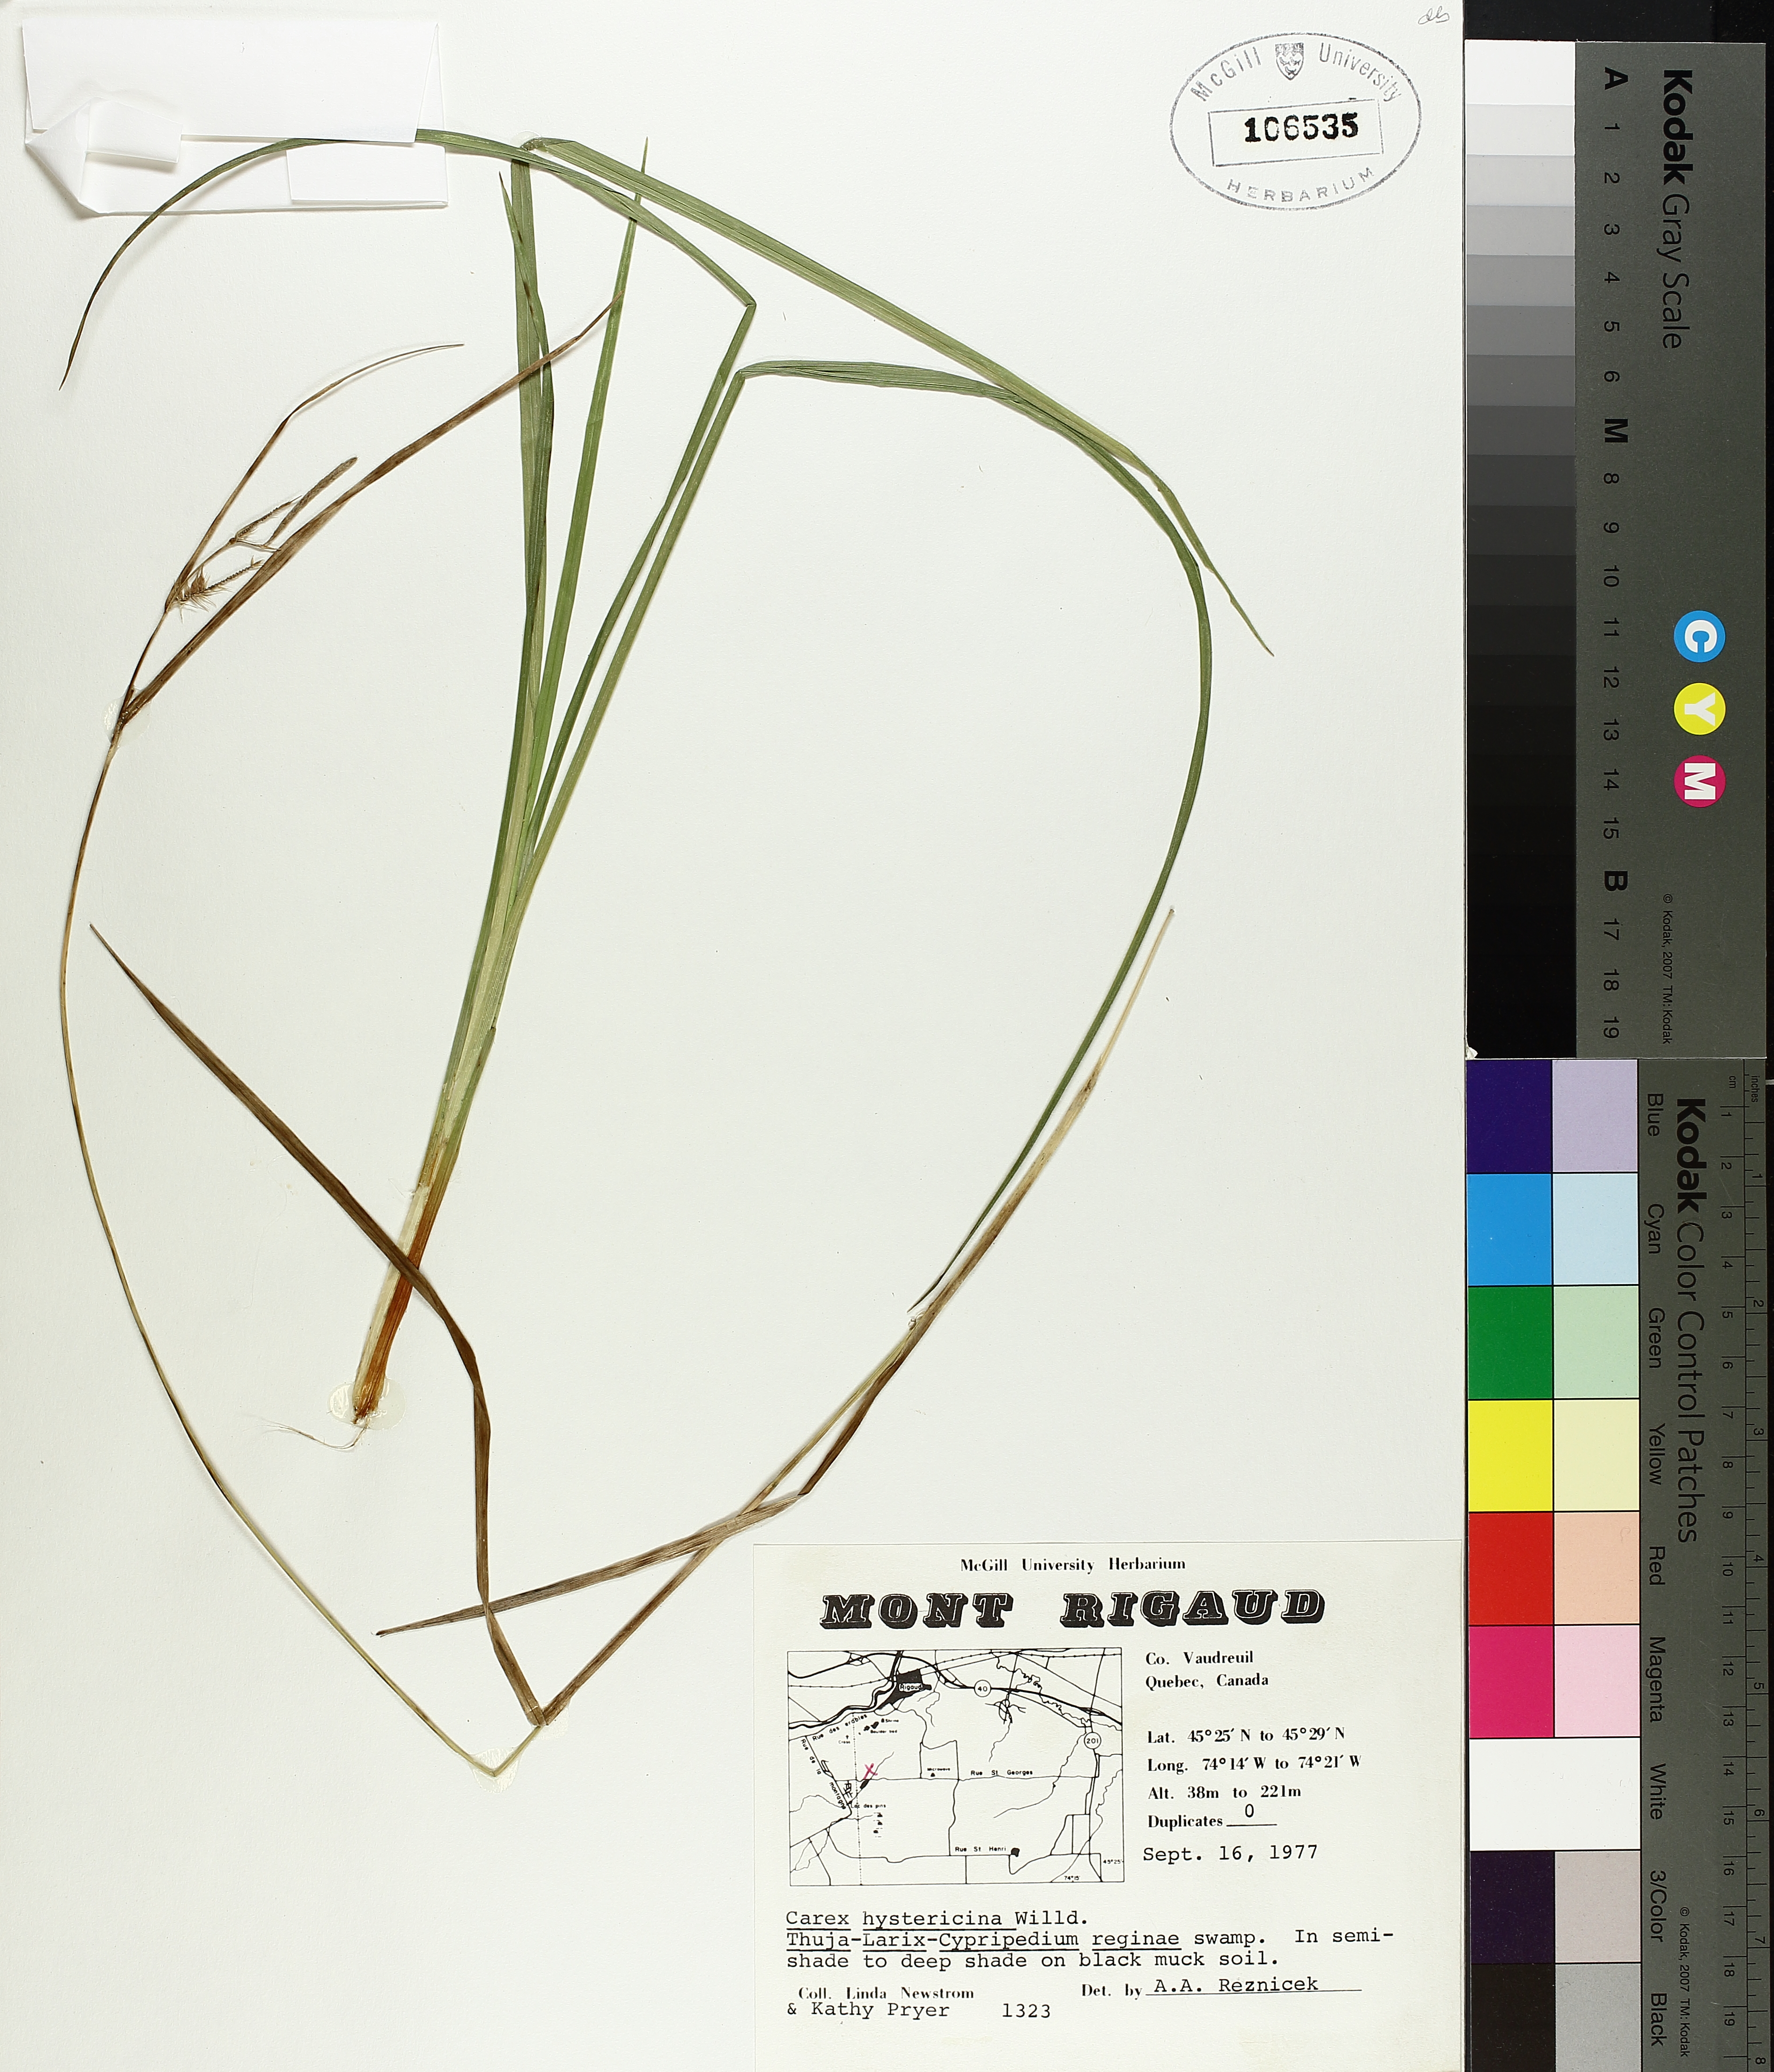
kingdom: Plantae
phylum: Tracheophyta
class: Liliopsida
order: Poales
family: Cyperaceae
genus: Carex
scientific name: Carex hystericina
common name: Bottlebrush sedge
